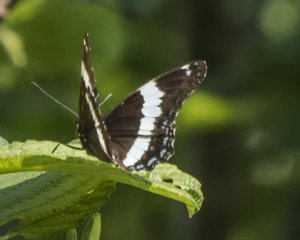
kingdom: Animalia
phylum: Arthropoda
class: Insecta
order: Lepidoptera
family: Nymphalidae
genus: Limenitis
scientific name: Limenitis arthemis
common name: Red-spotted Admiral
